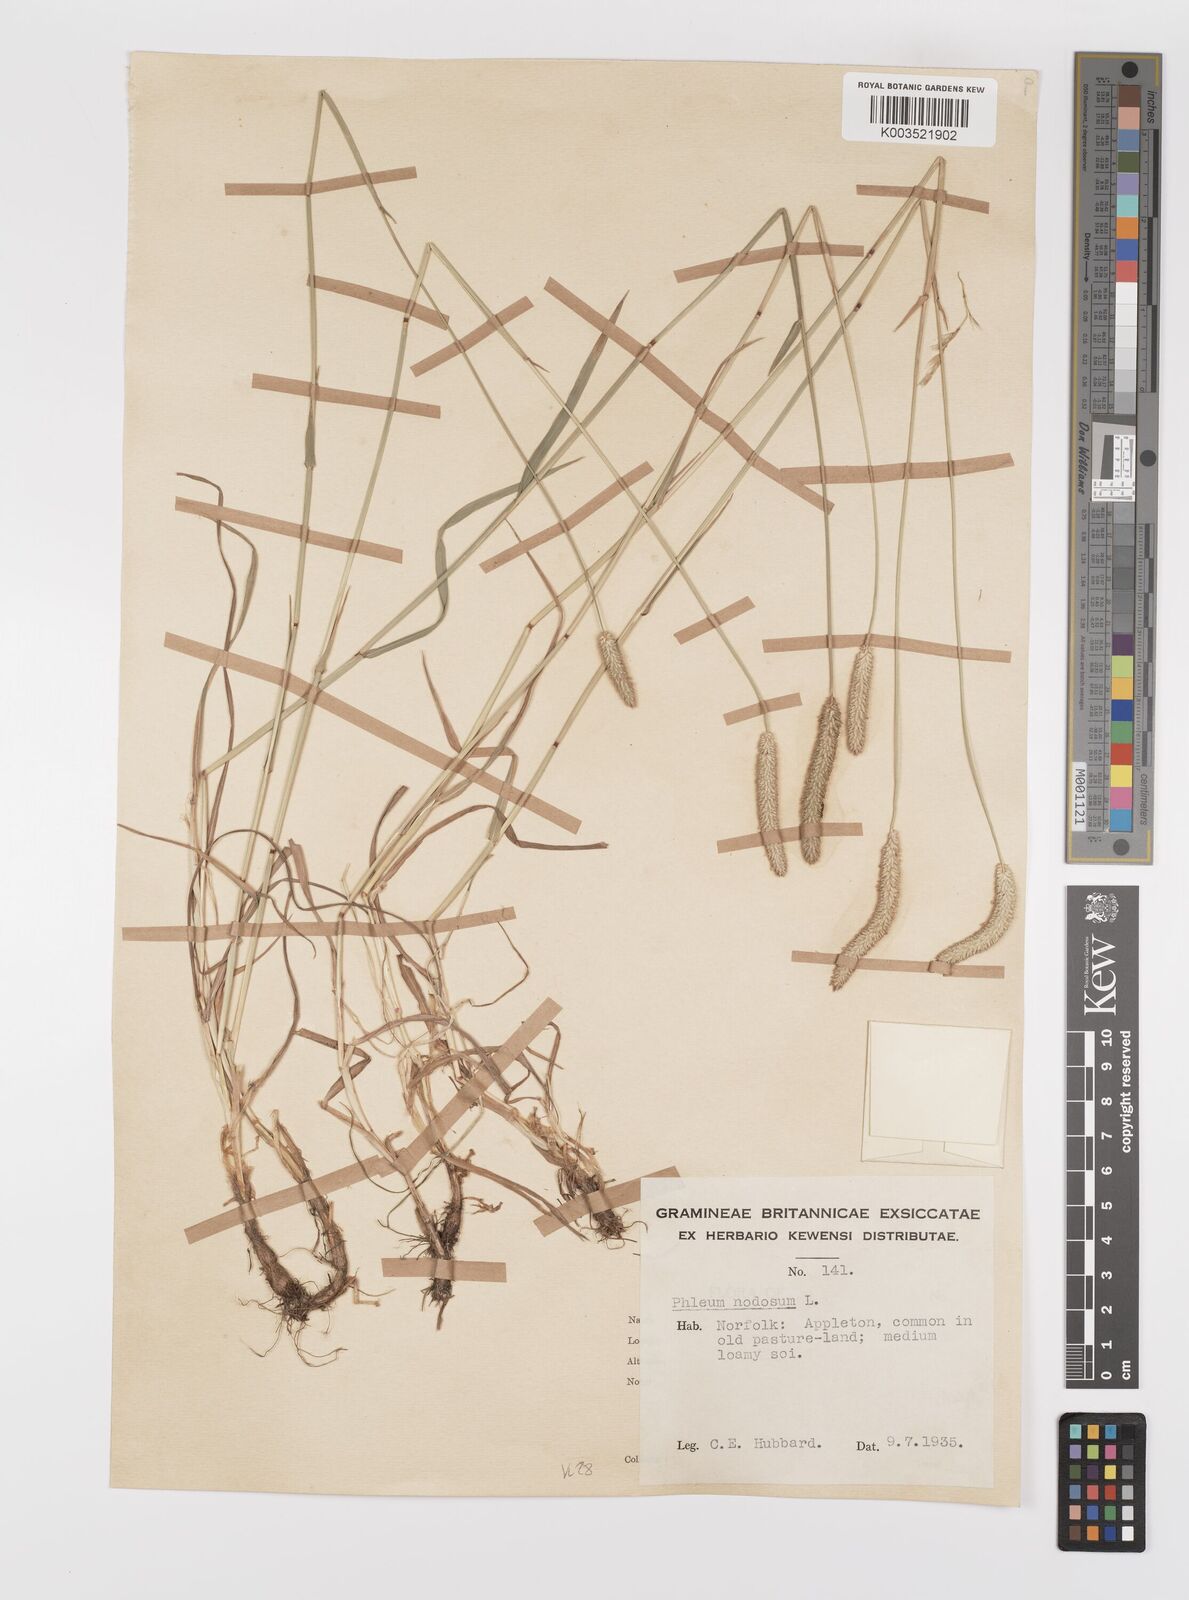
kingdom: Plantae
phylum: Tracheophyta
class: Liliopsida
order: Poales
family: Poaceae
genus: Phleum
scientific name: Phleum bertolonii
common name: Smaller cat's-tail
